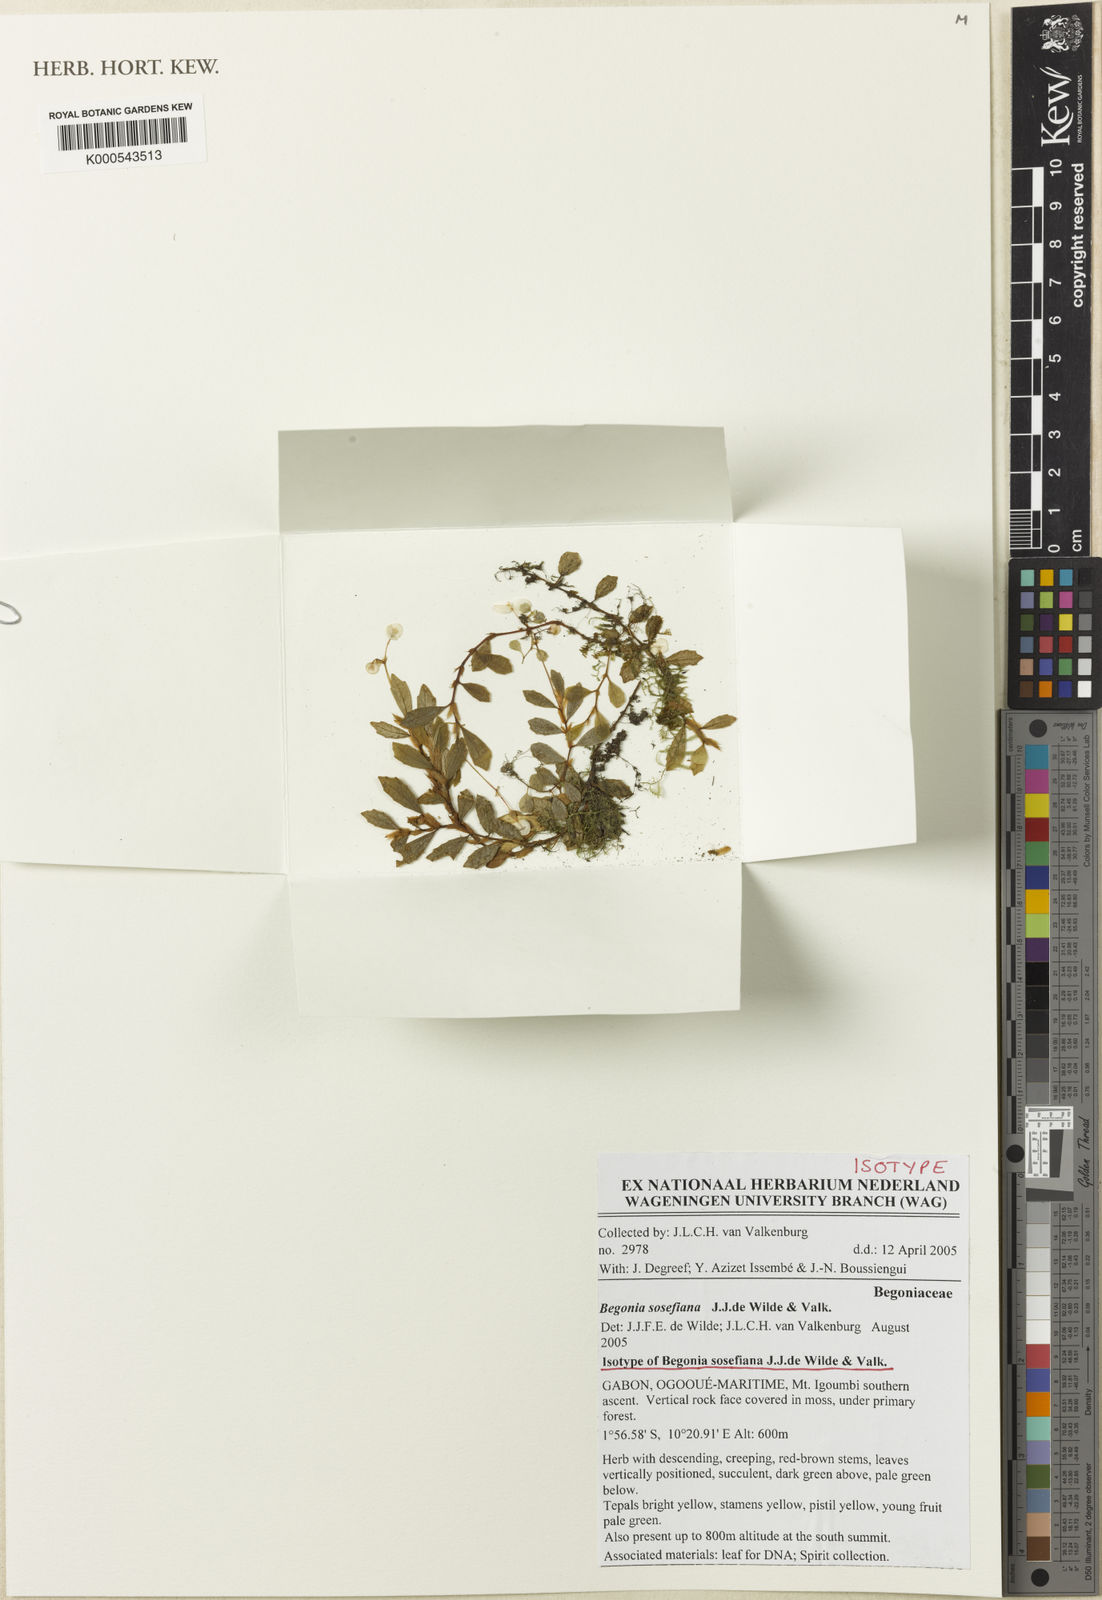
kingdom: Plantae
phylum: Tracheophyta
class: Magnoliopsida
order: Cucurbitales
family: Begoniaceae
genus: Begonia
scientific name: Begonia sosefiana
